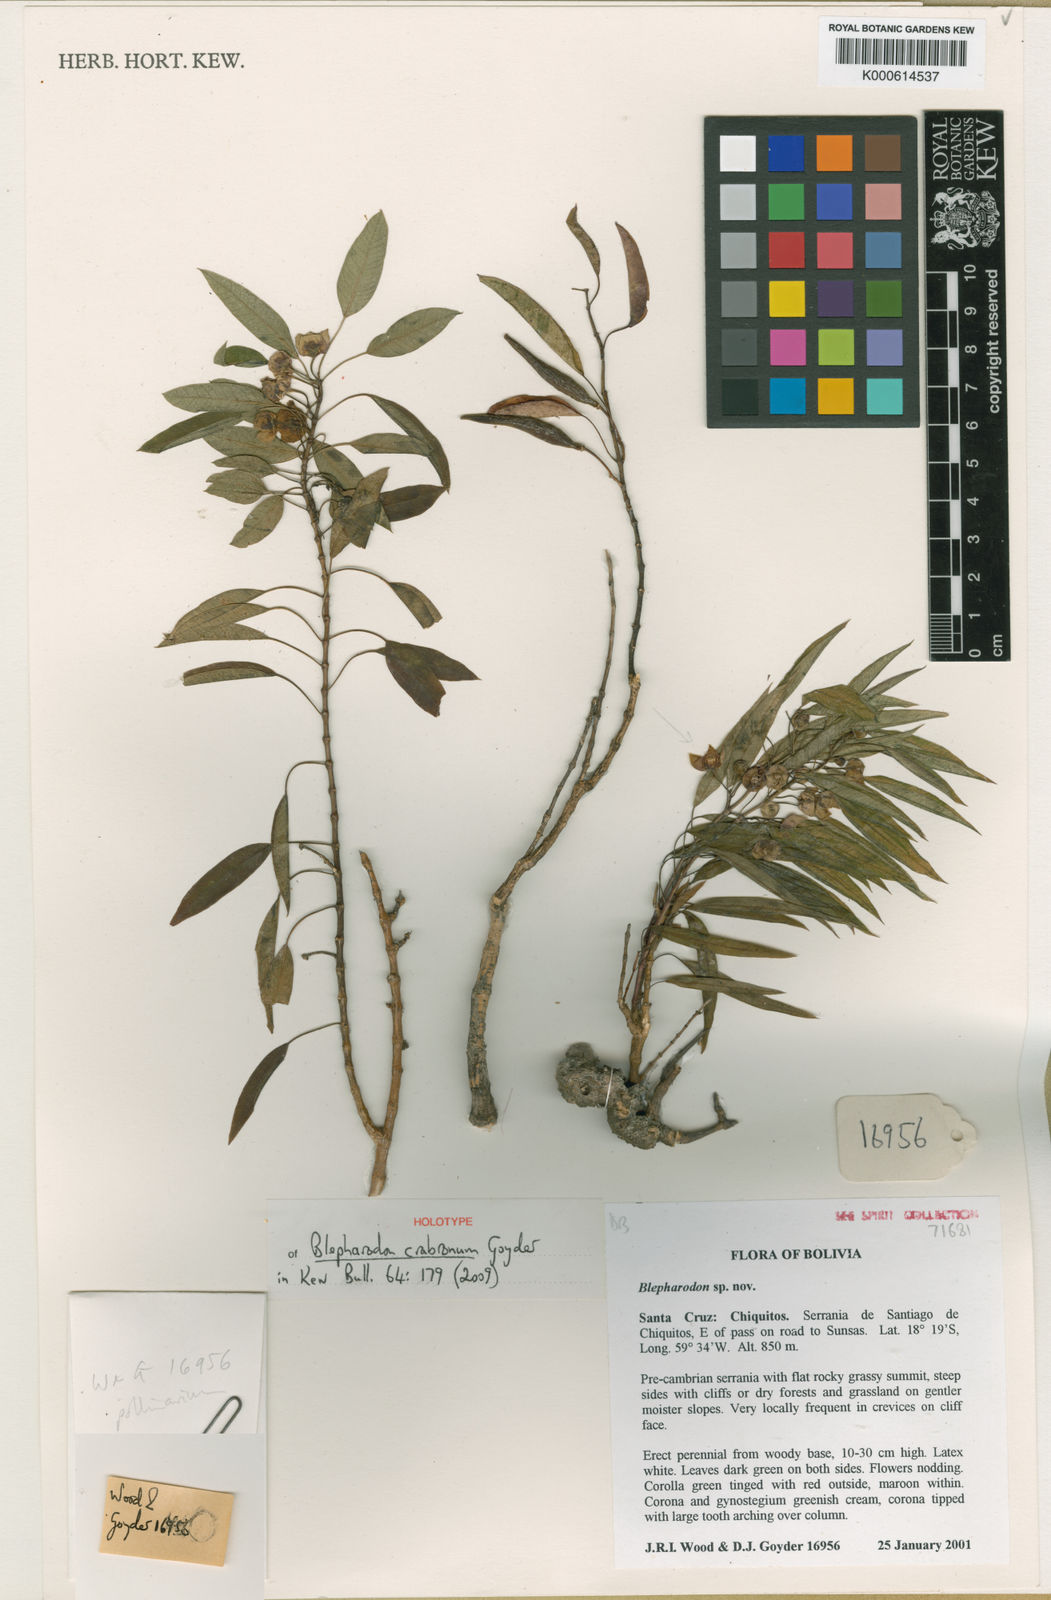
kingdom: Plantae
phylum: Tracheophyta
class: Magnoliopsida
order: Gentianales
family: Apocynaceae
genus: Blepharodon
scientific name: Blepharodon crabronum
